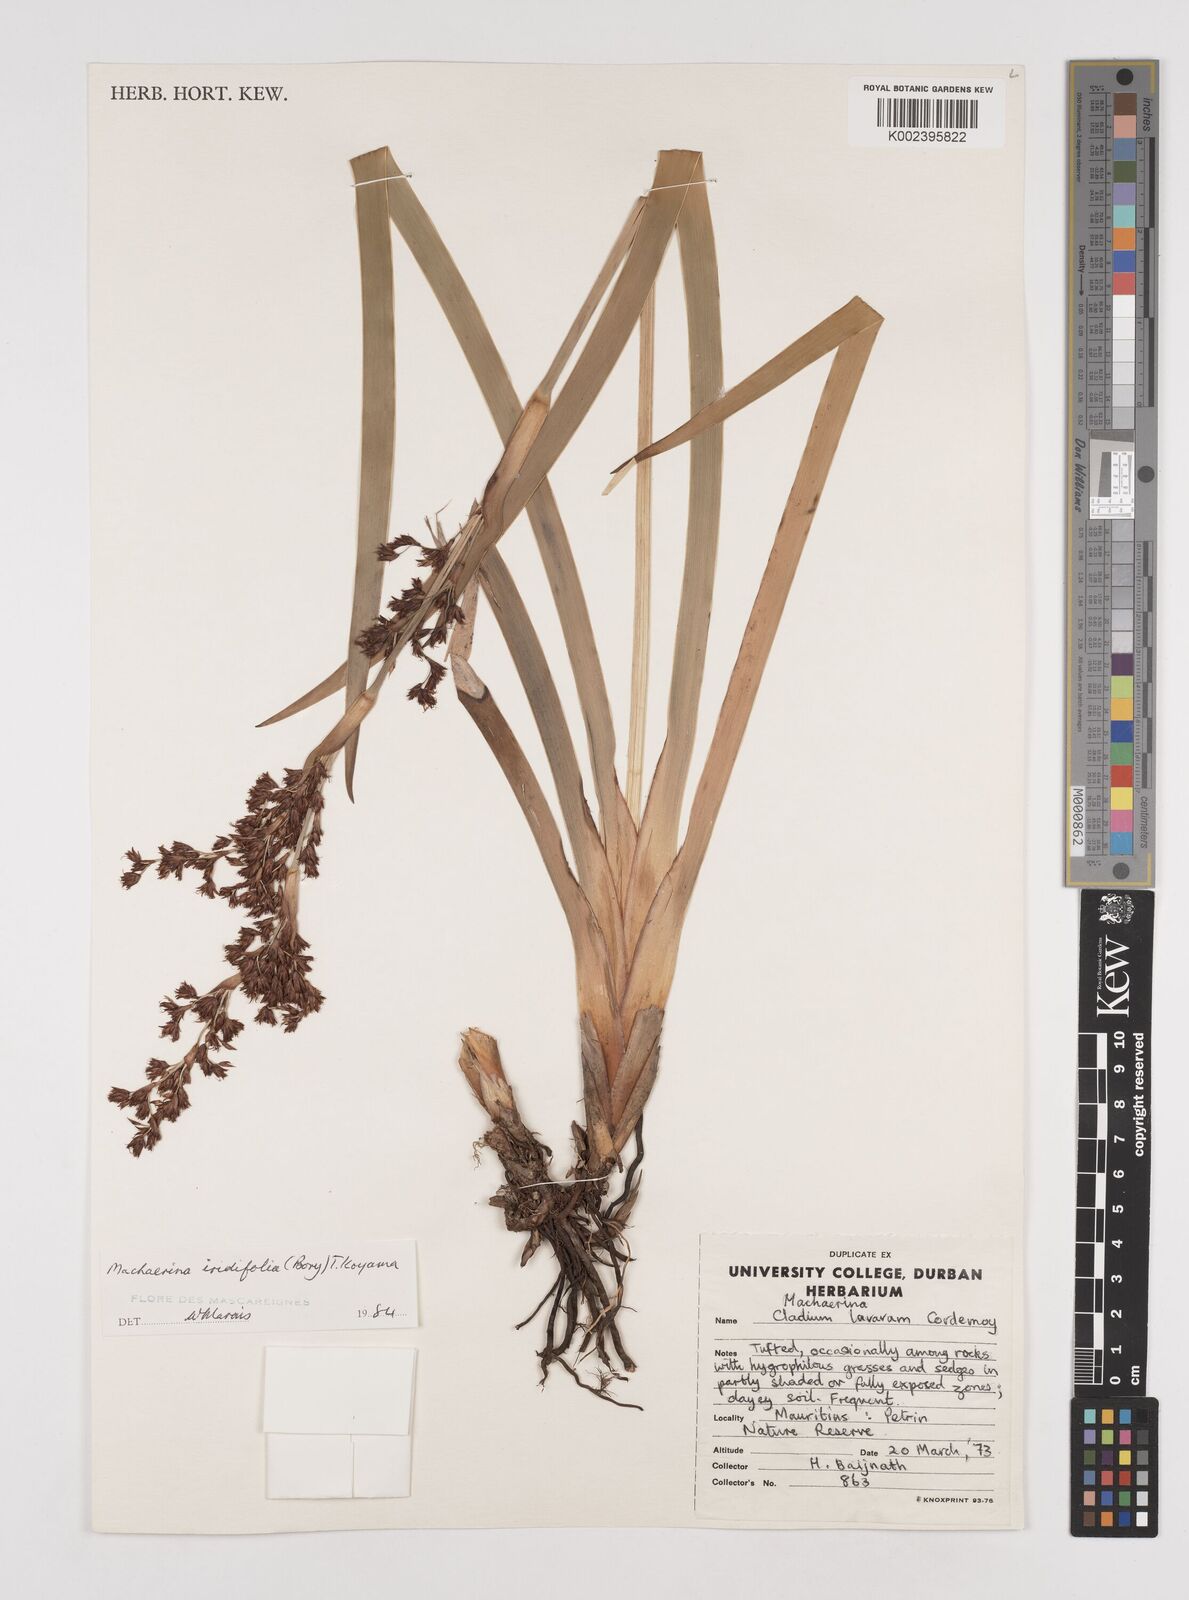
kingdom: Plantae
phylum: Tracheophyta
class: Liliopsida
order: Poales
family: Cyperaceae
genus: Machaerina
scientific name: Machaerina iridifolia
